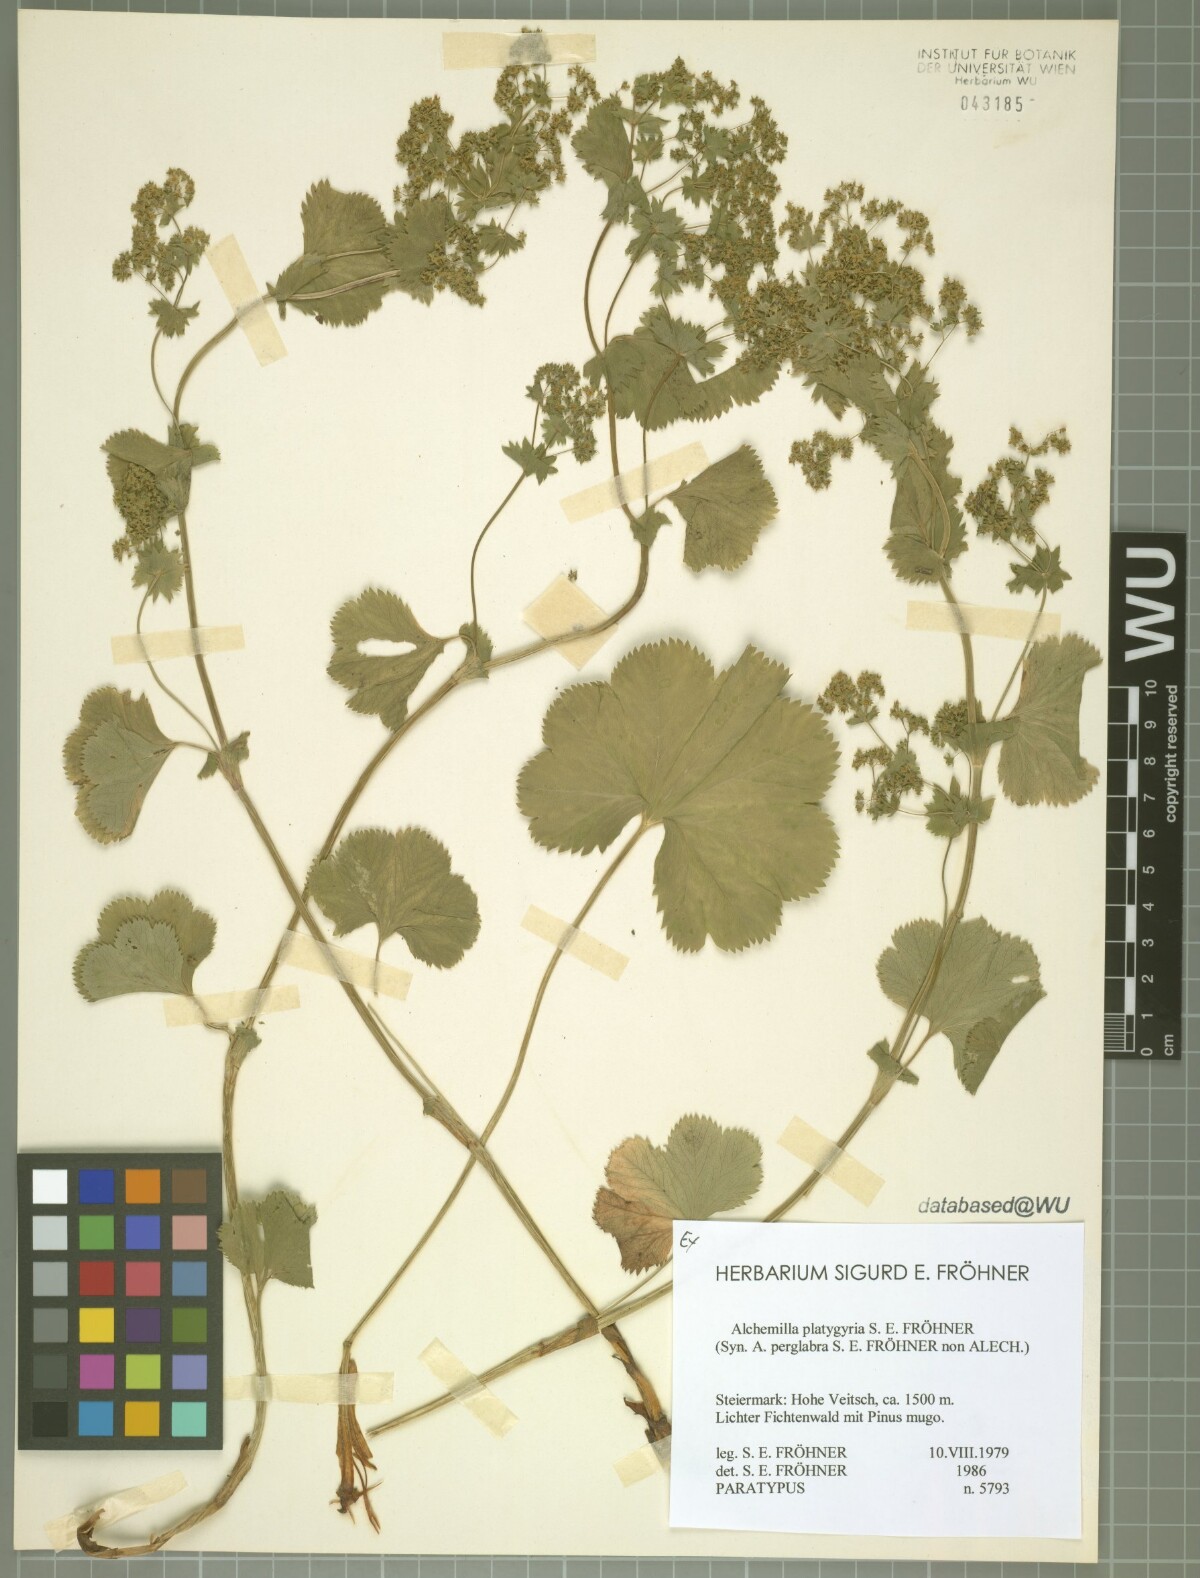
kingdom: Plantae
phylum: Tracheophyta
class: Magnoliopsida
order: Rosales
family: Rosaceae
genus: Alchemilla
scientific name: Alchemilla platygyria
